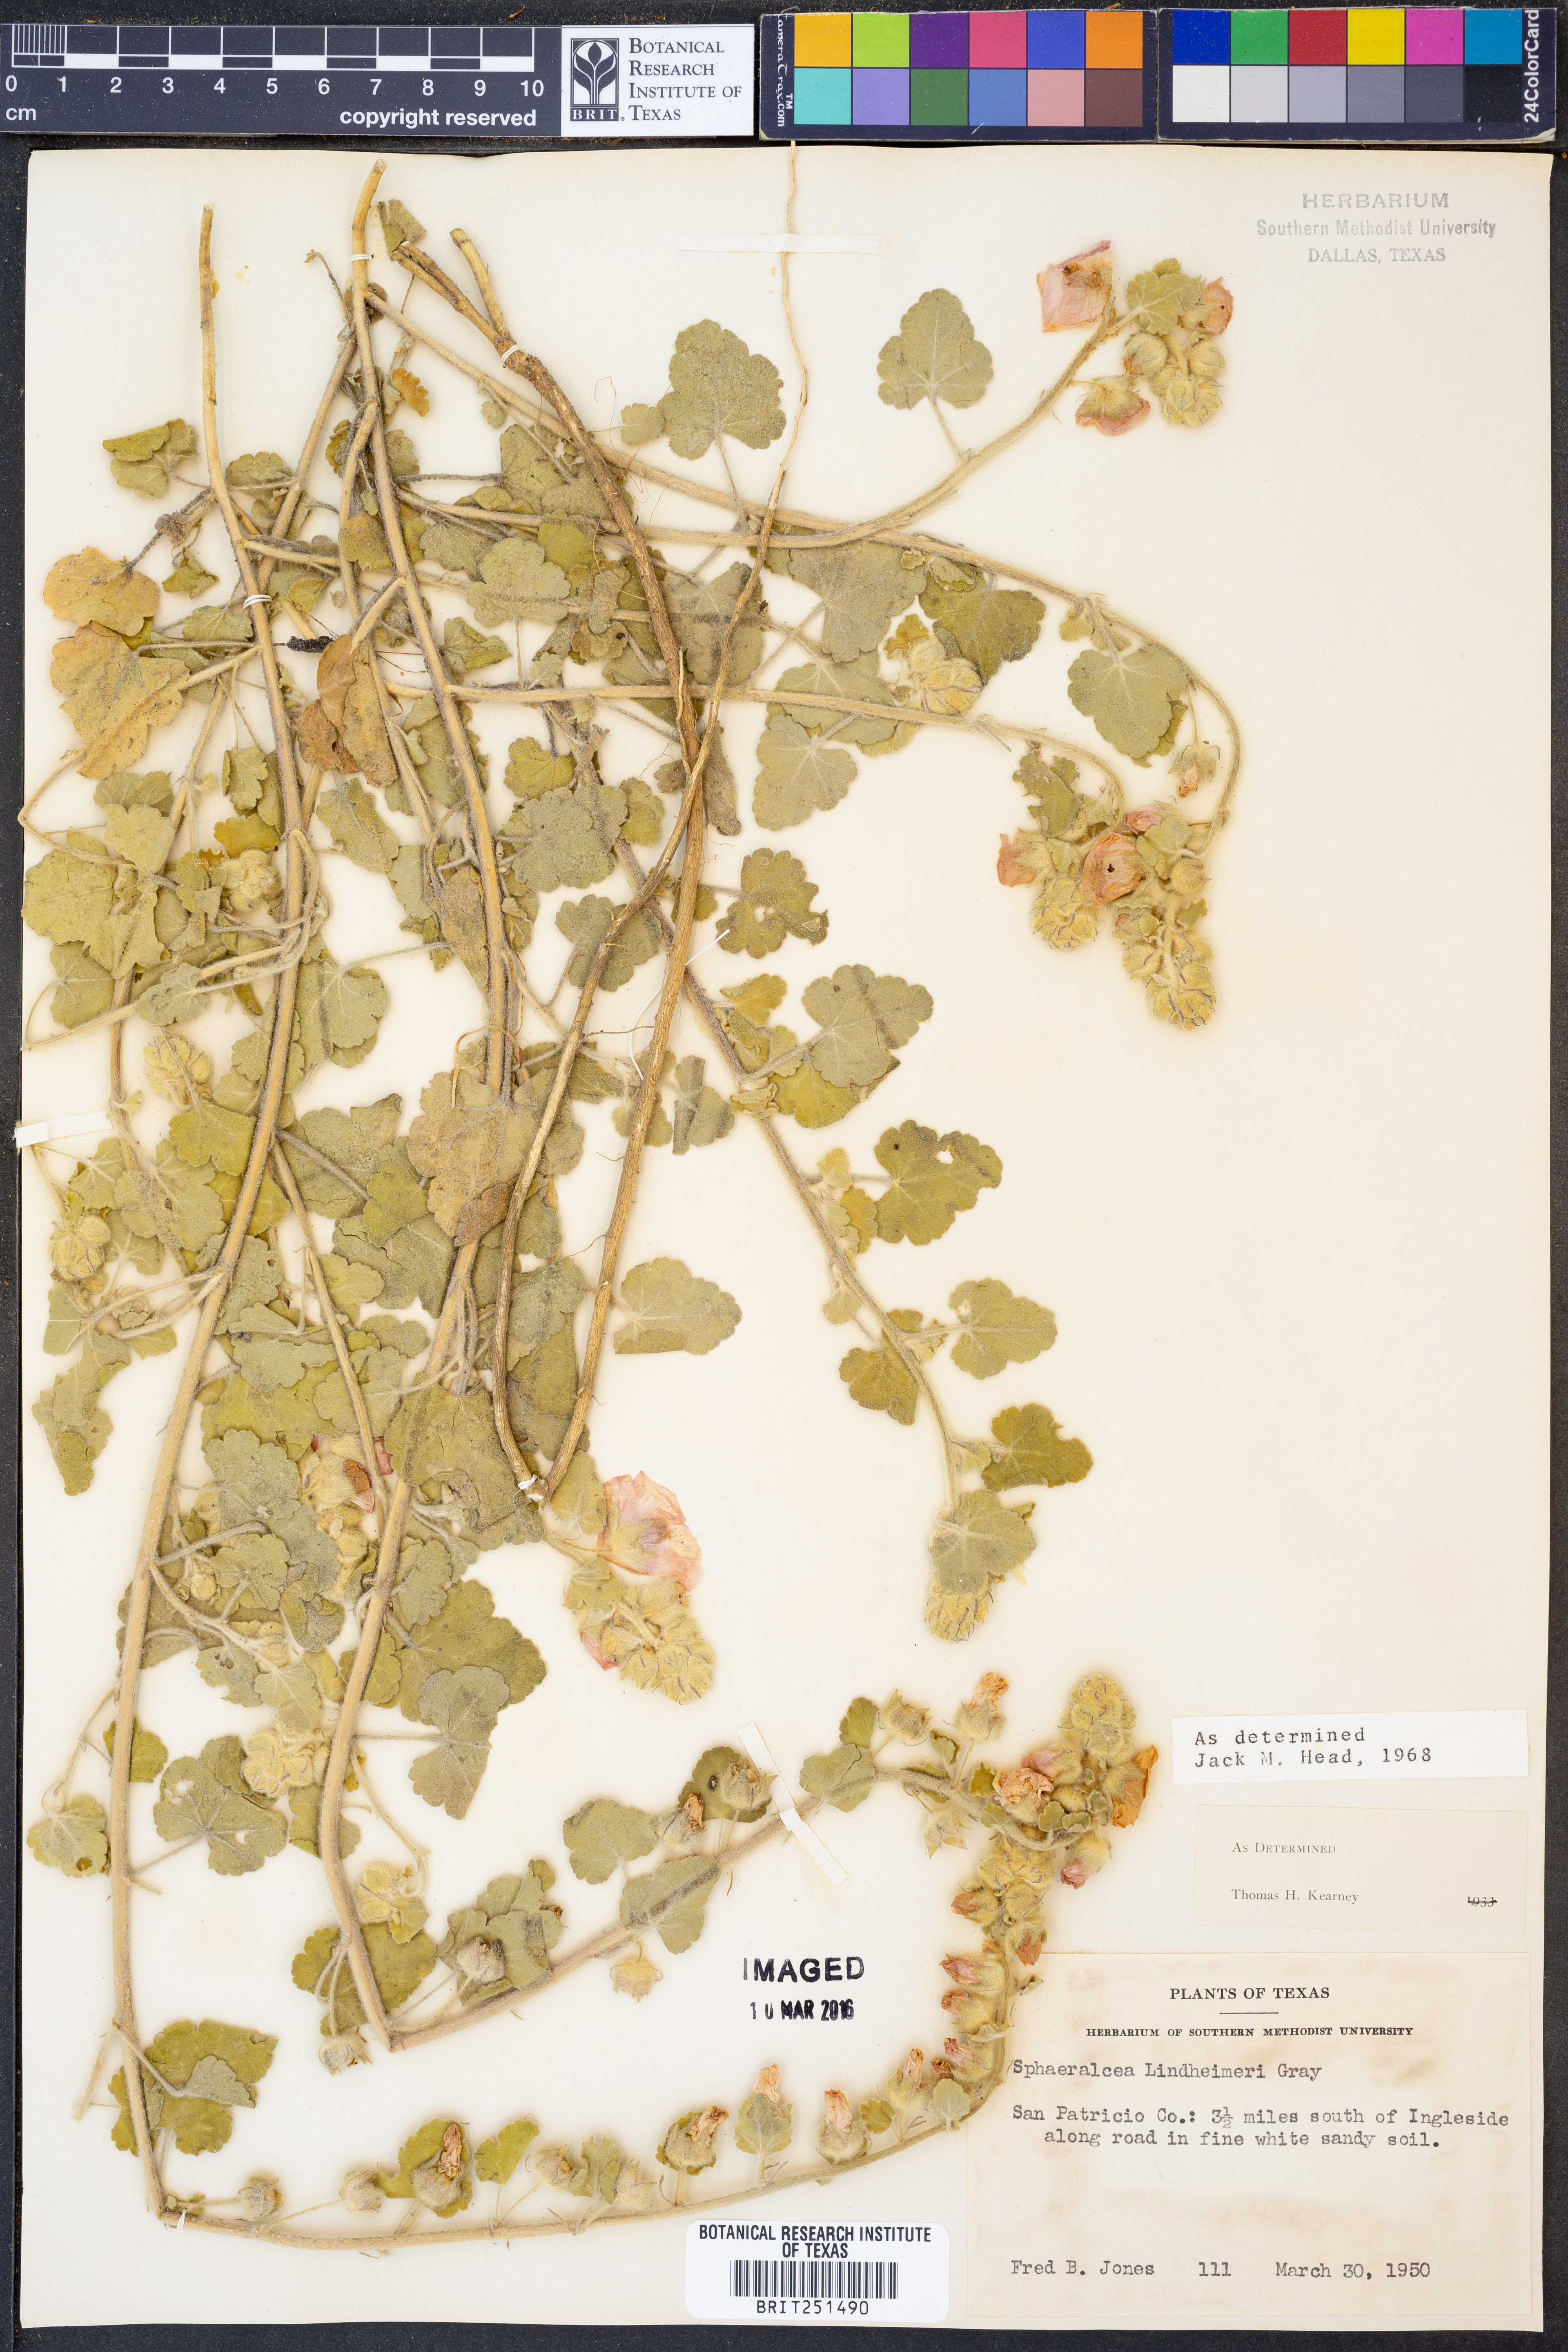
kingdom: Plantae
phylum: Tracheophyta
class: Magnoliopsida
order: Malvales
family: Malvaceae
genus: Sphaeralcea
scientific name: Sphaeralcea lindheimeri
